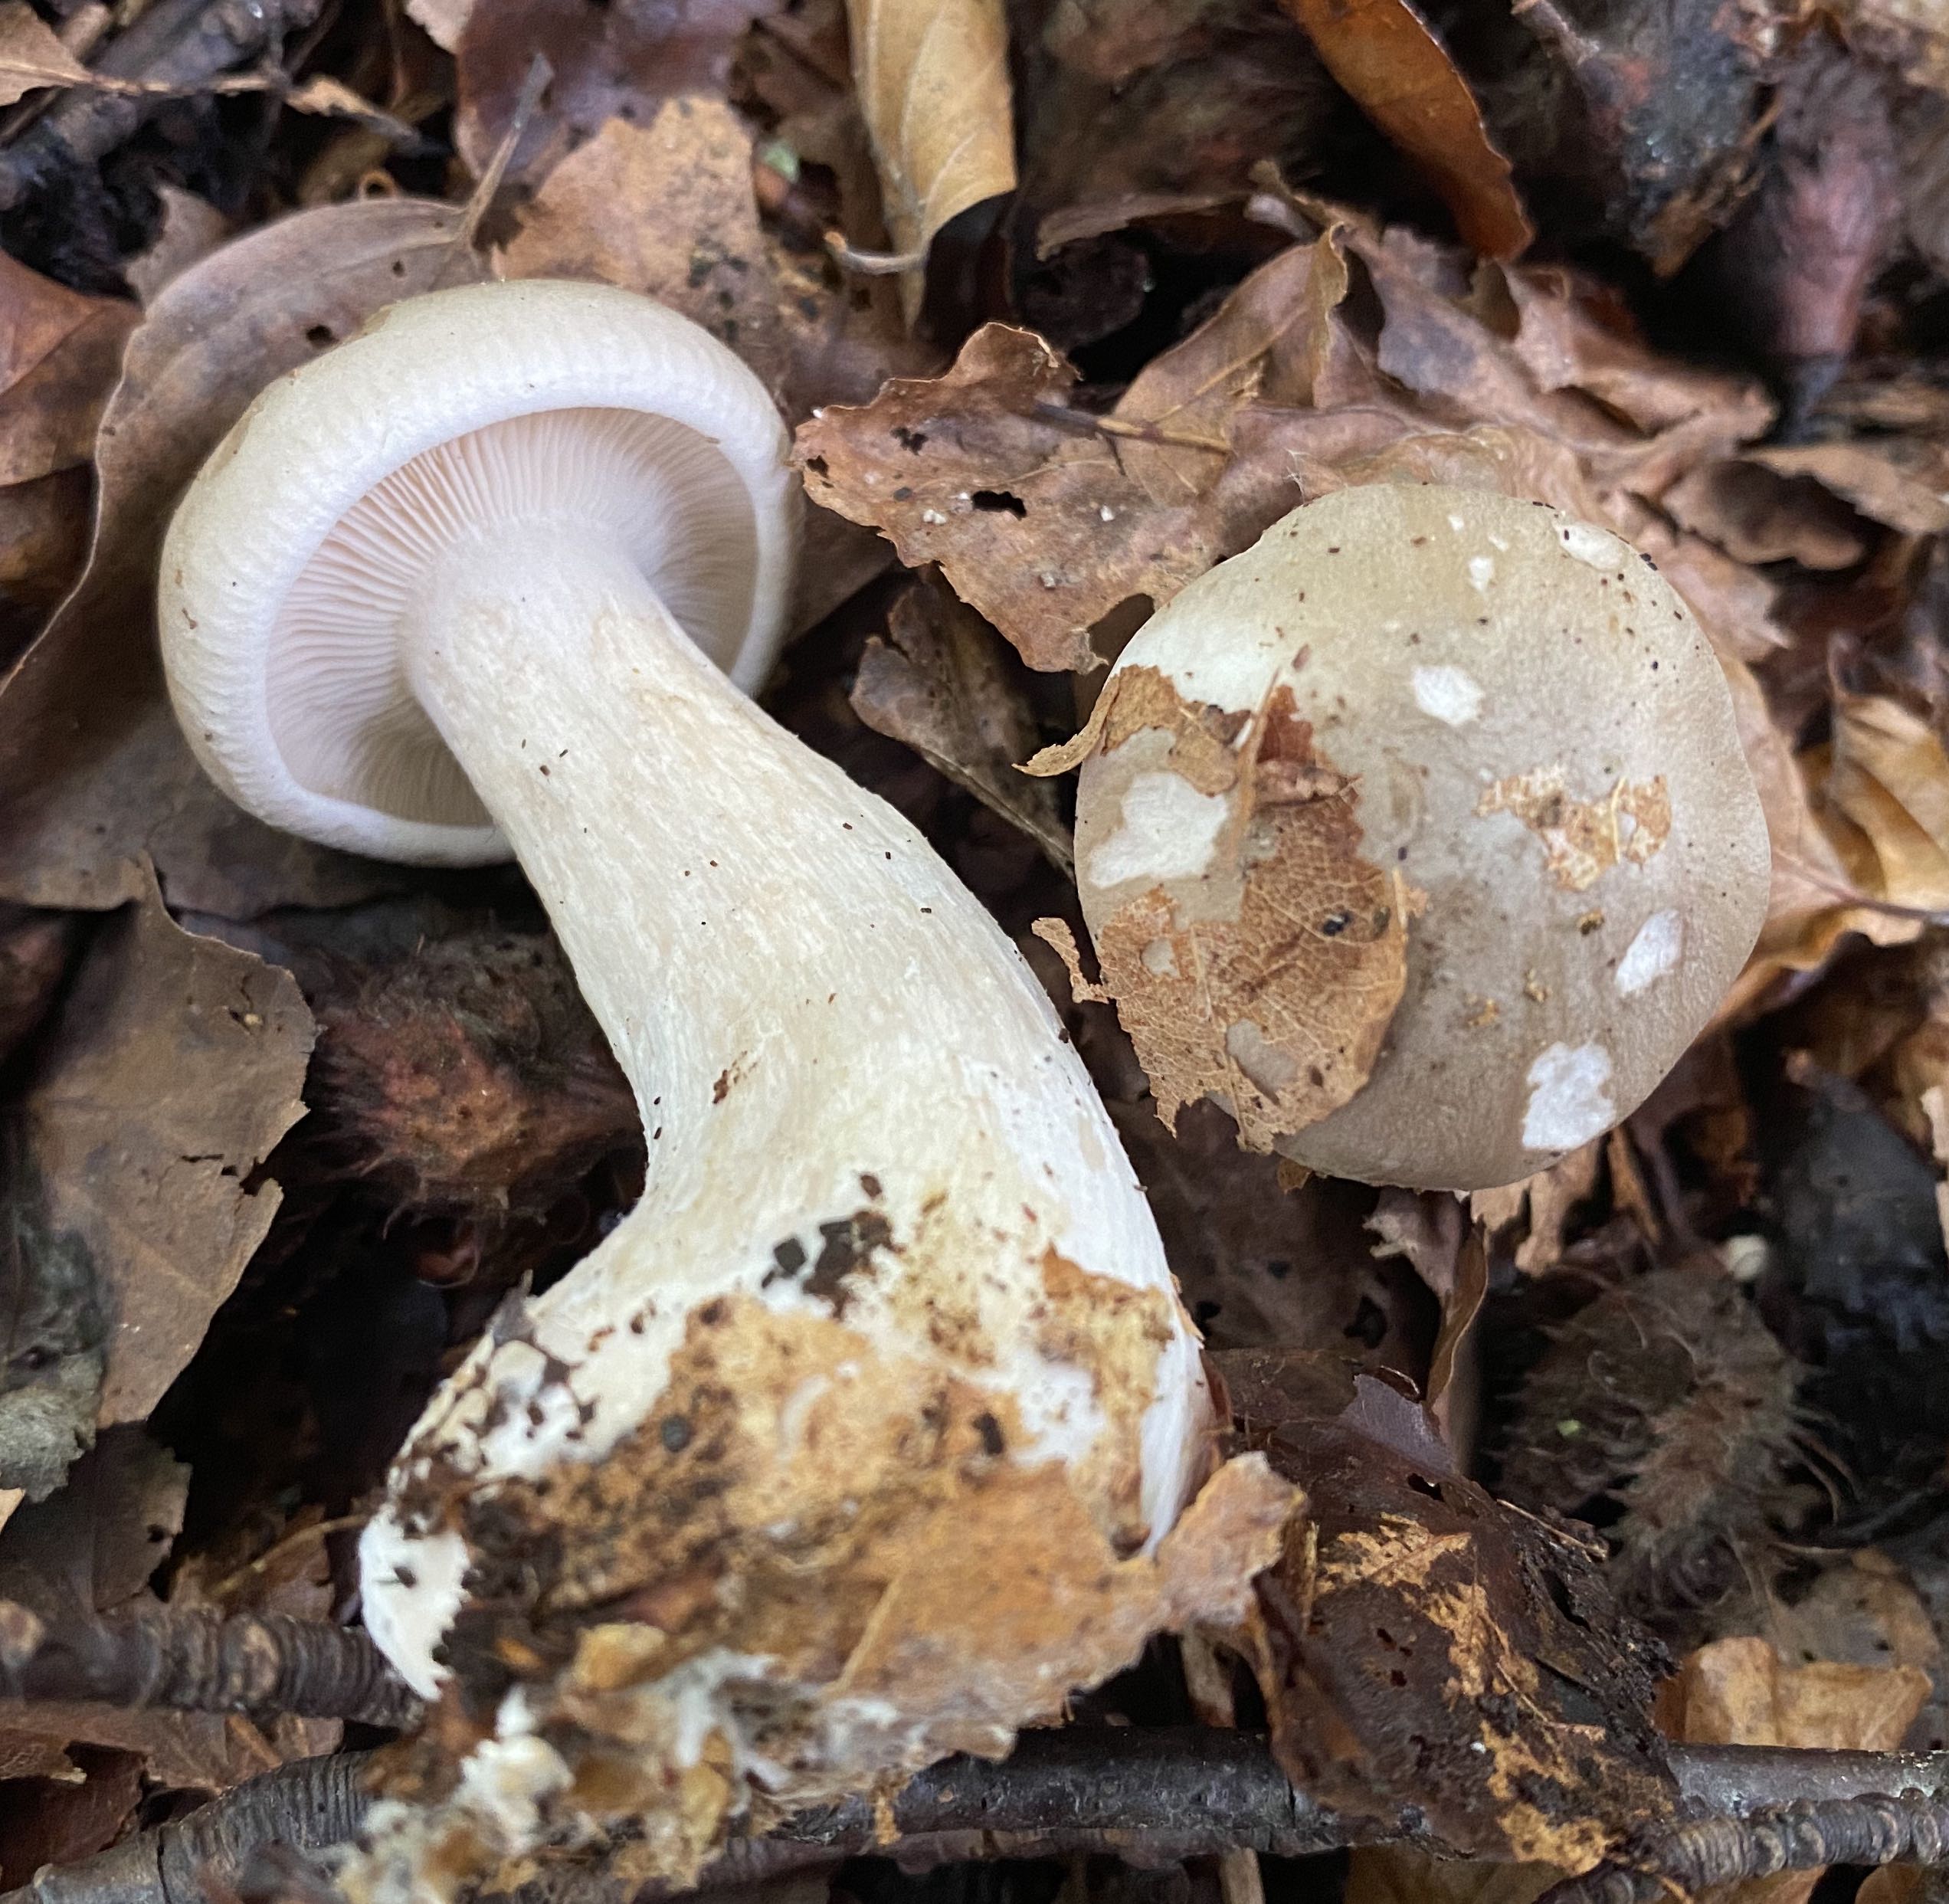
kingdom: Fungi
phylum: Basidiomycota
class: Agaricomycetes
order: Agaricales
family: Tricholomataceae
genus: Clitocybe
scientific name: Clitocybe nebularis
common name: tåge-tragthat
